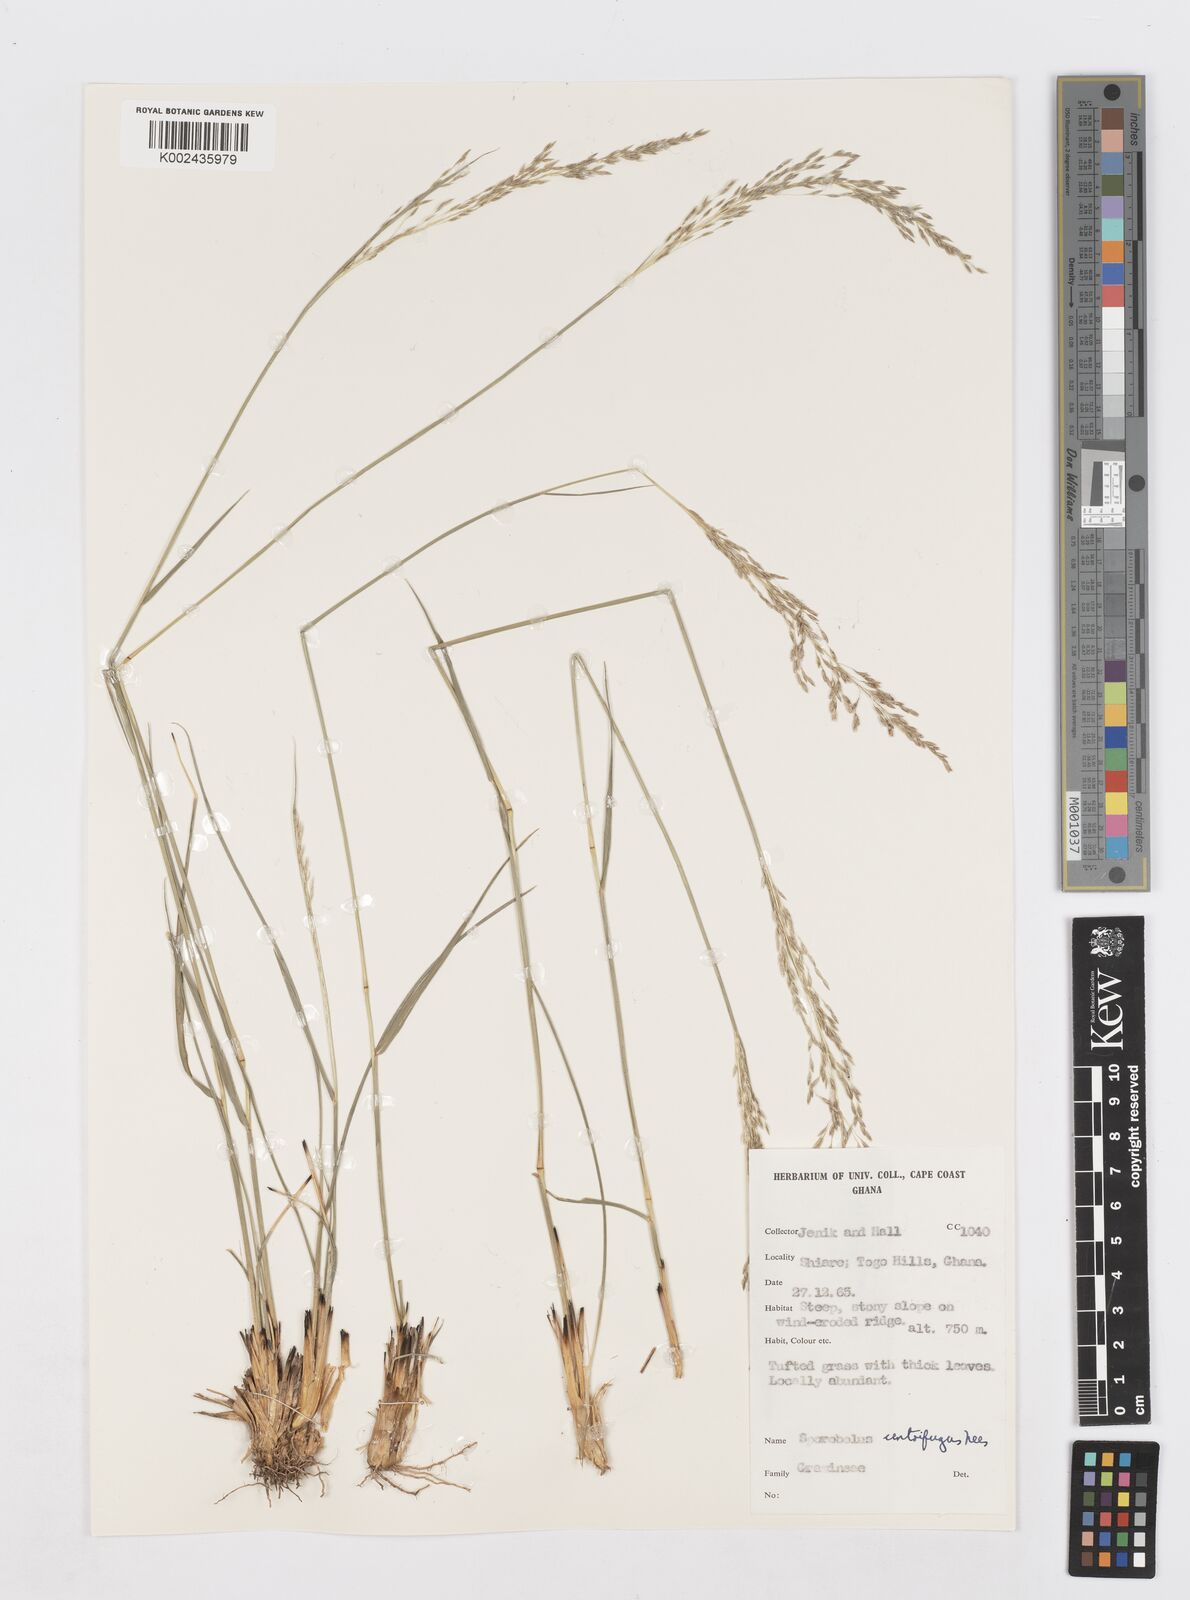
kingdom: Plantae
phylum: Tracheophyta
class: Liliopsida
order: Poales
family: Poaceae
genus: Sporobolus
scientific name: Sporobolus subulatus
